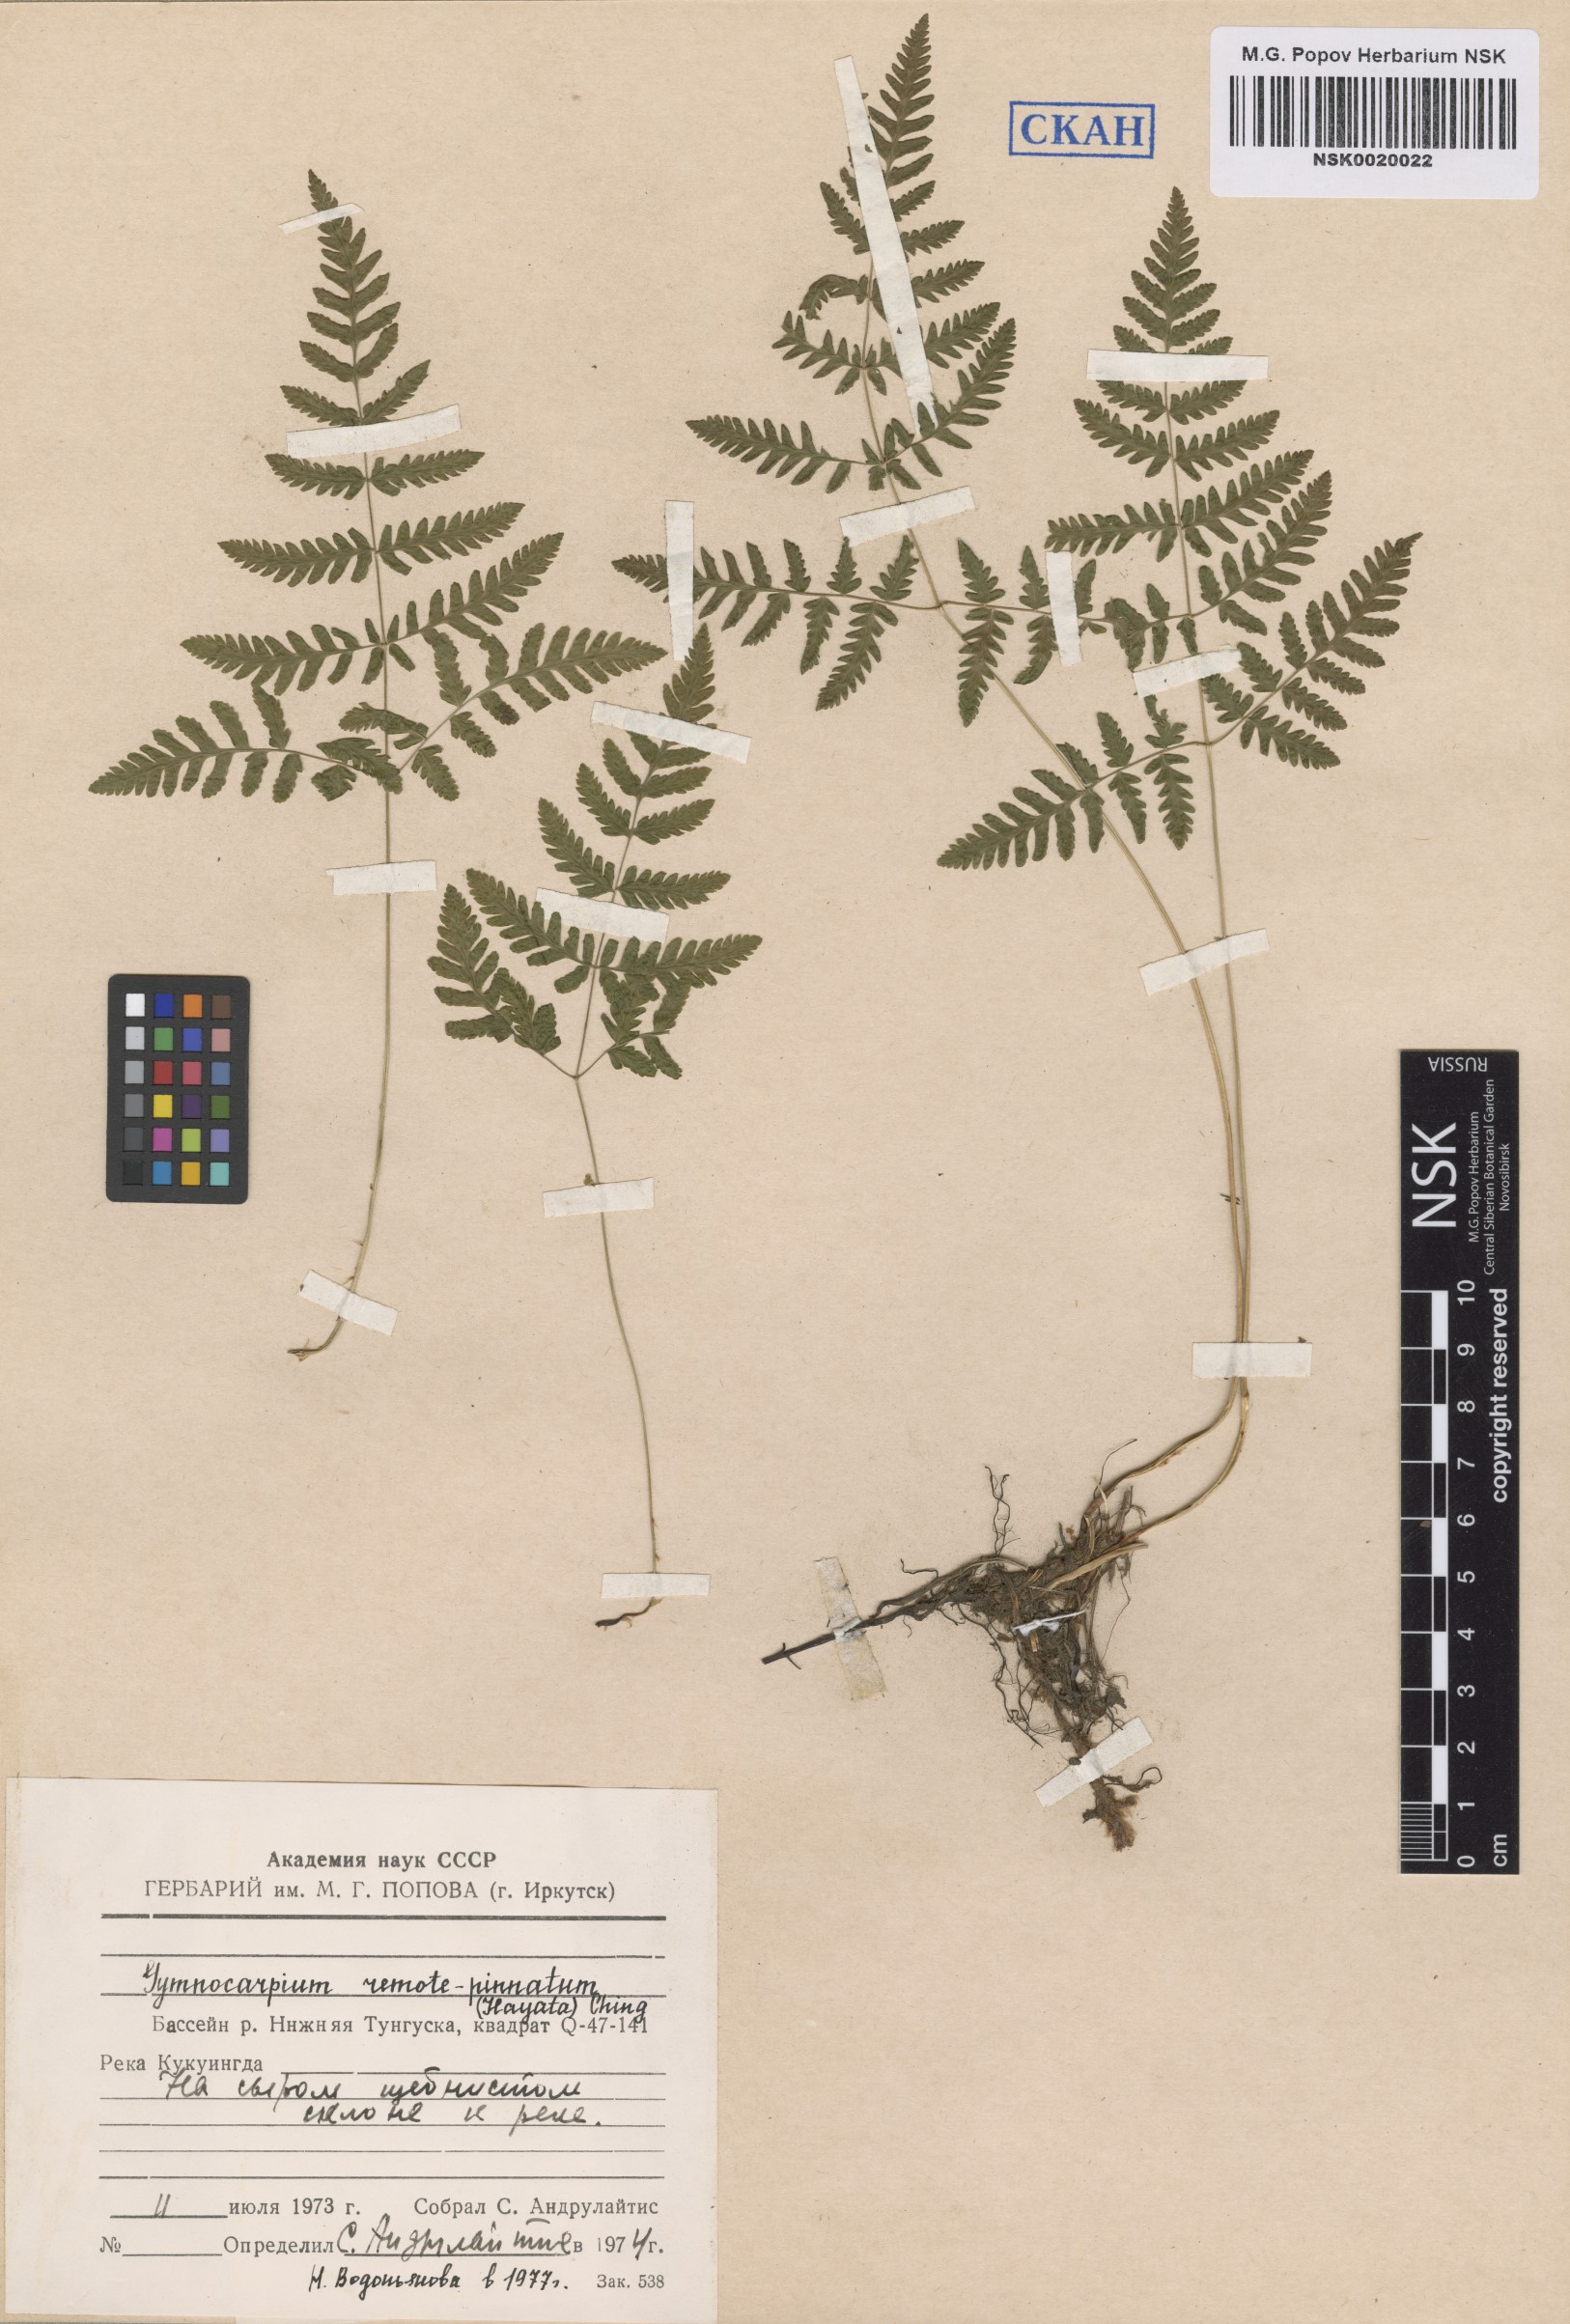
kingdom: Plantae
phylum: Tracheophyta
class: Polypodiopsida
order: Polypodiales
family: Cystopteridaceae
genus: Gymnocarpium
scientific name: Gymnocarpium remotepinnatum
